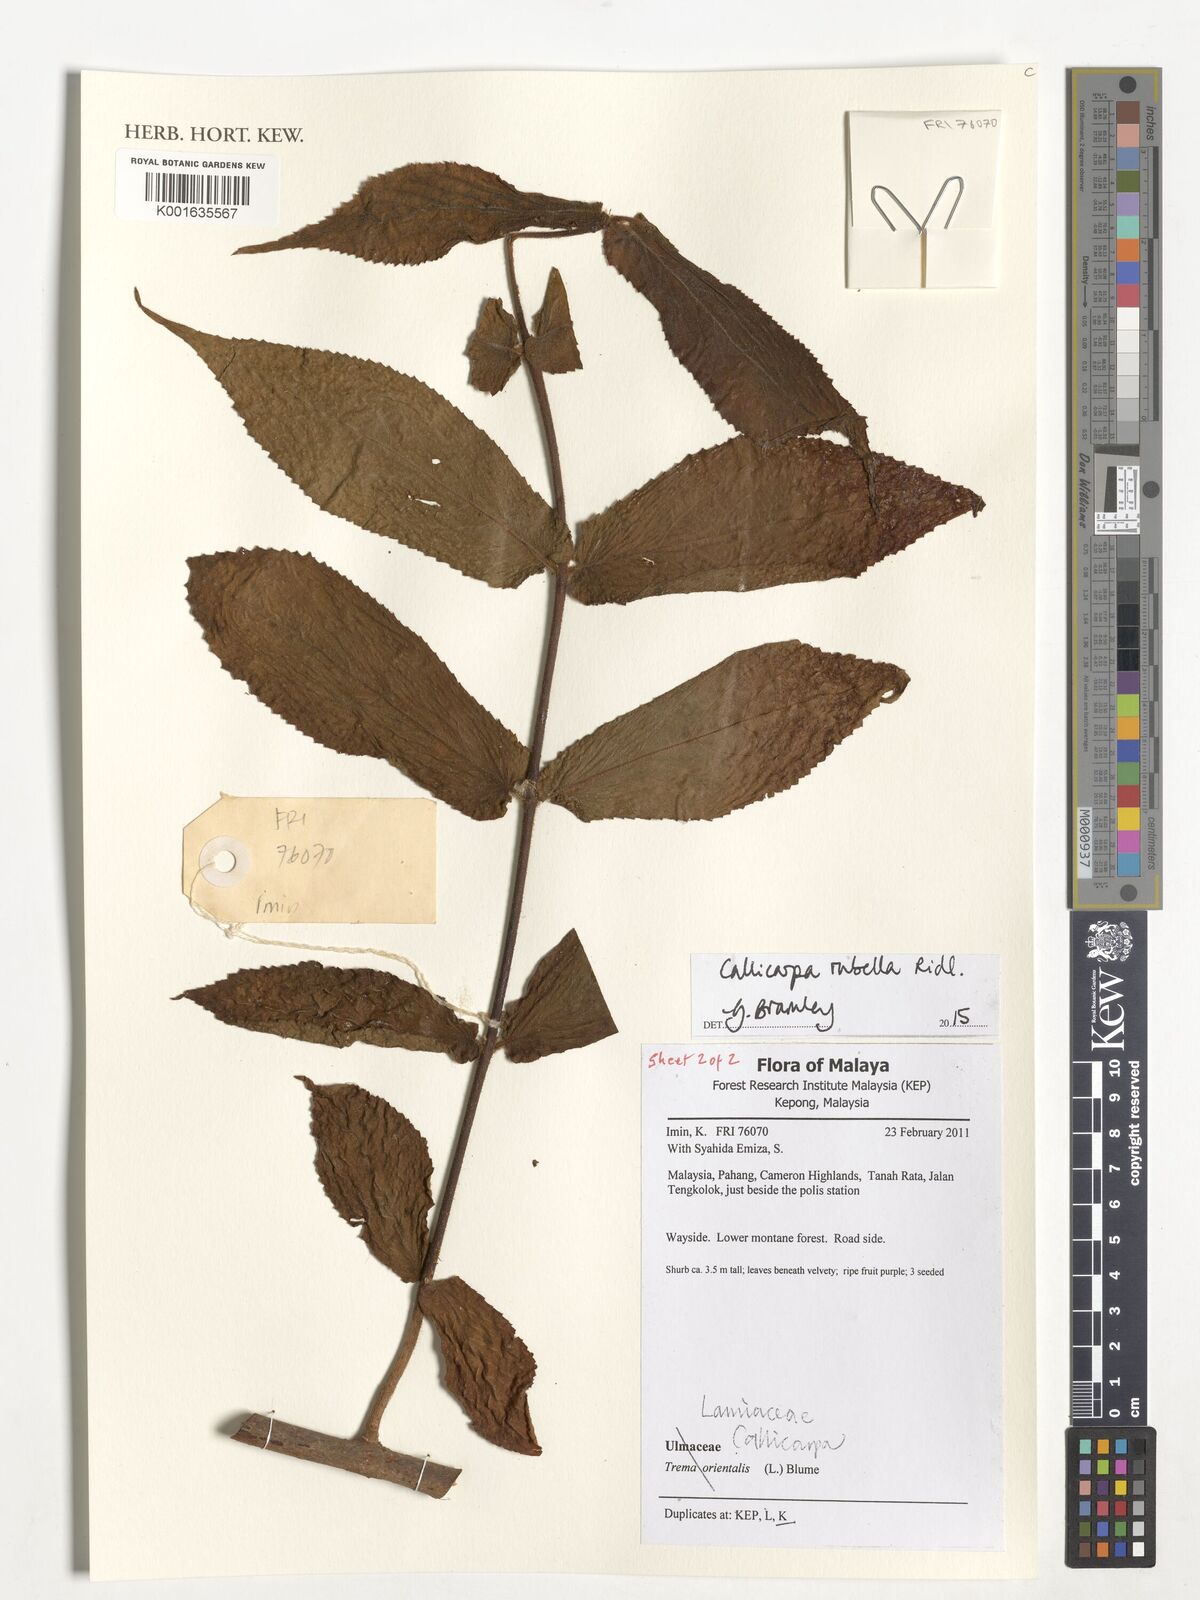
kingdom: Plantae
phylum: Tracheophyta
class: Magnoliopsida
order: Lamiales
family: Lamiaceae
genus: Callicarpa
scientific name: Callicarpa rubella
